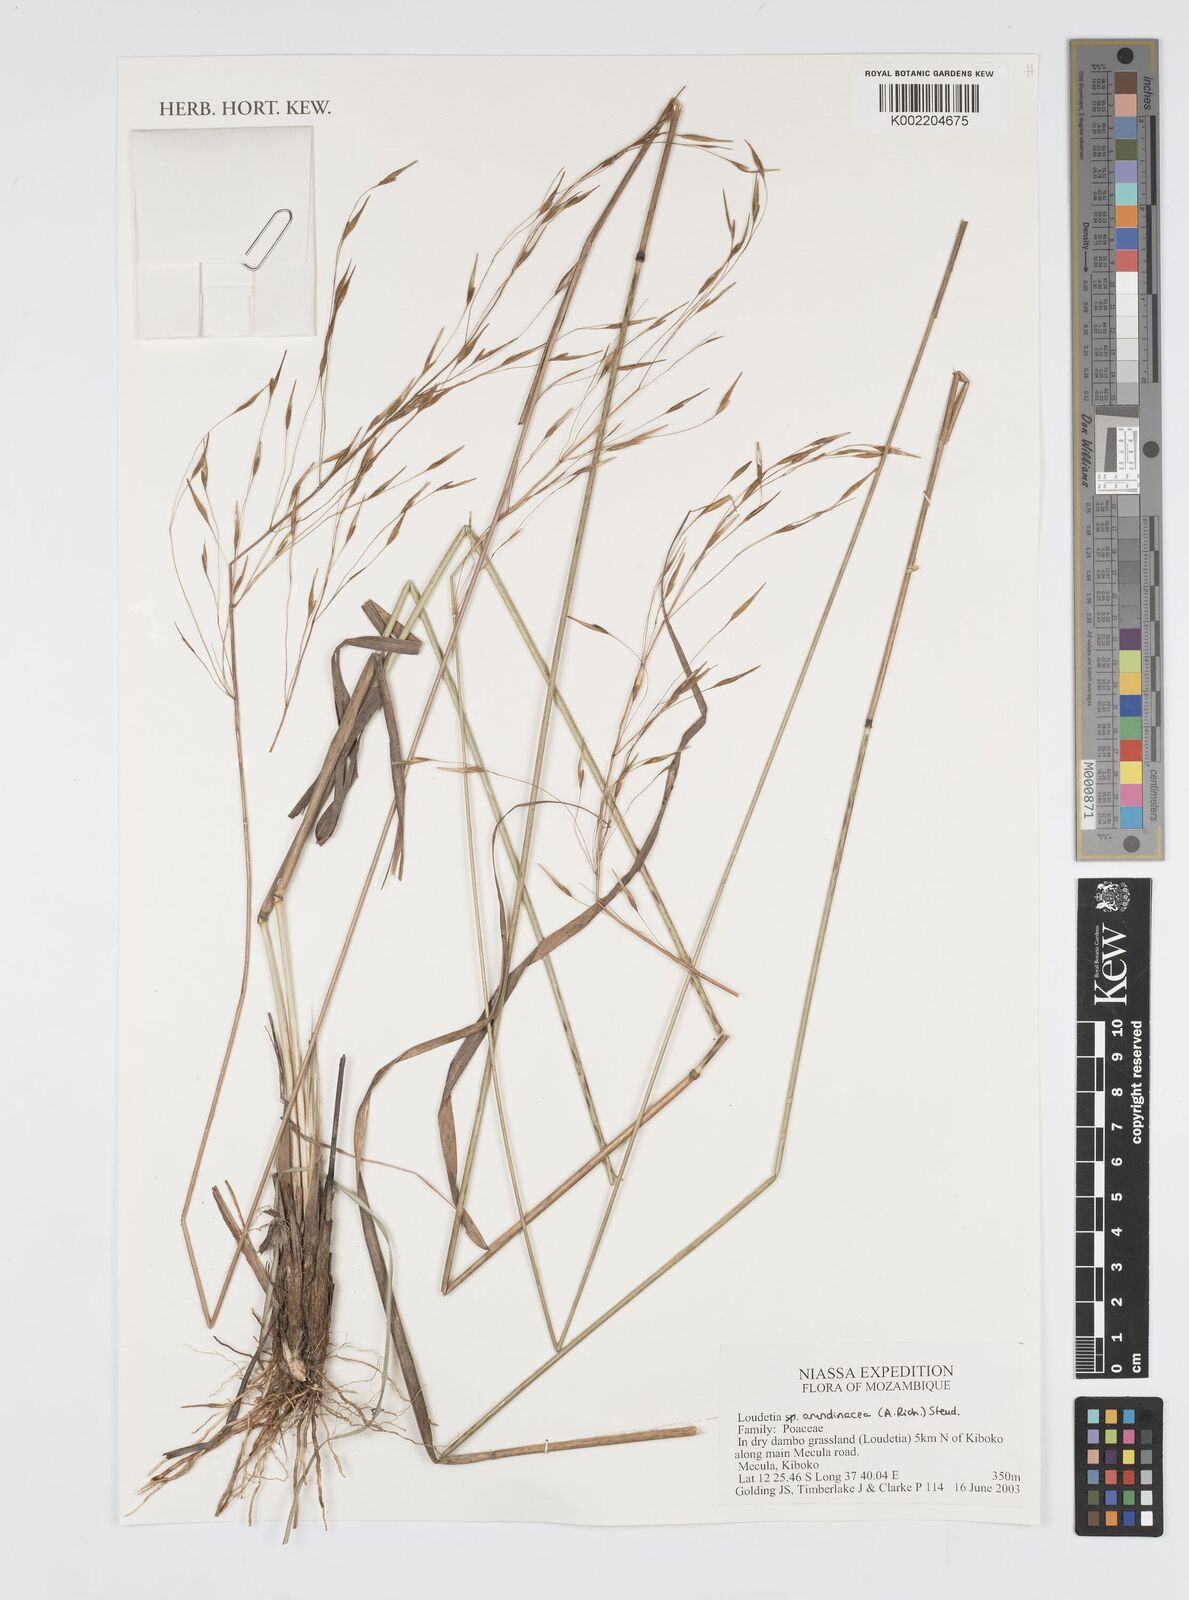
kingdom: Plantae
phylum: Tracheophyta
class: Liliopsida
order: Poales
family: Poaceae
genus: Loudetia
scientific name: Loudetia arundinacea
